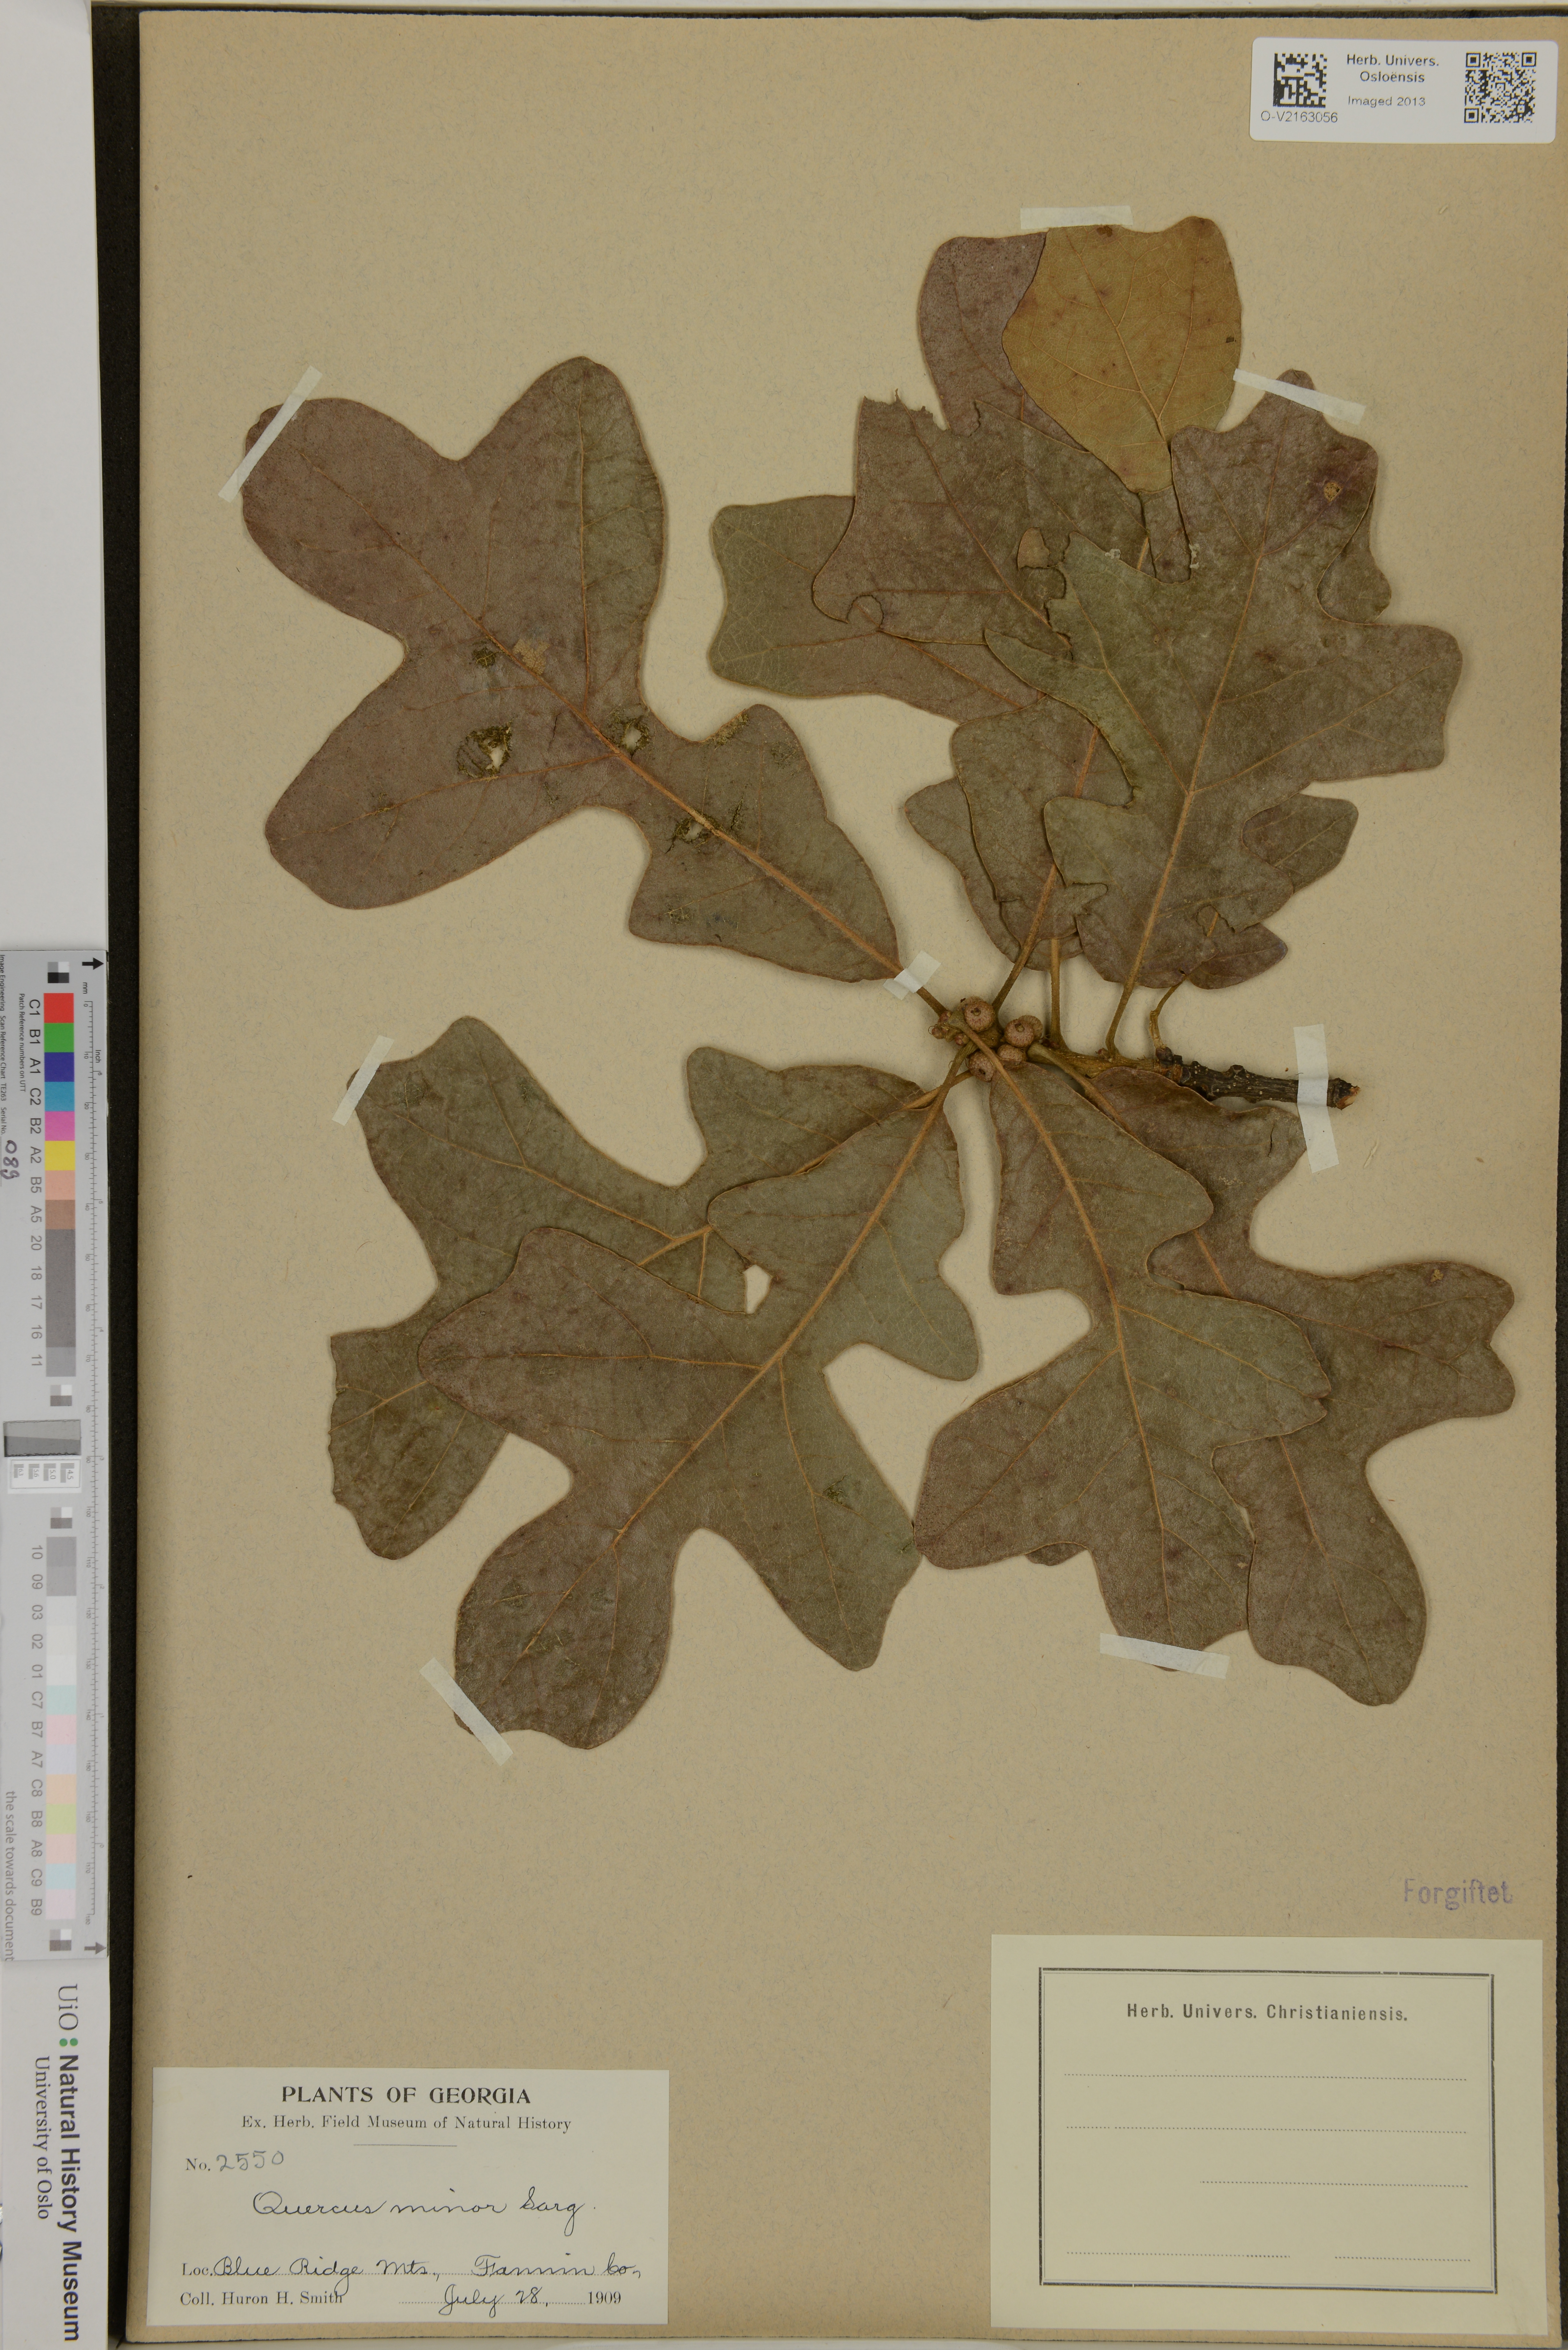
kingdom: Plantae
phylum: Tracheophyta
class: Magnoliopsida
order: Fagales
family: Fagaceae
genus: Quercus
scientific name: Quercus minor
